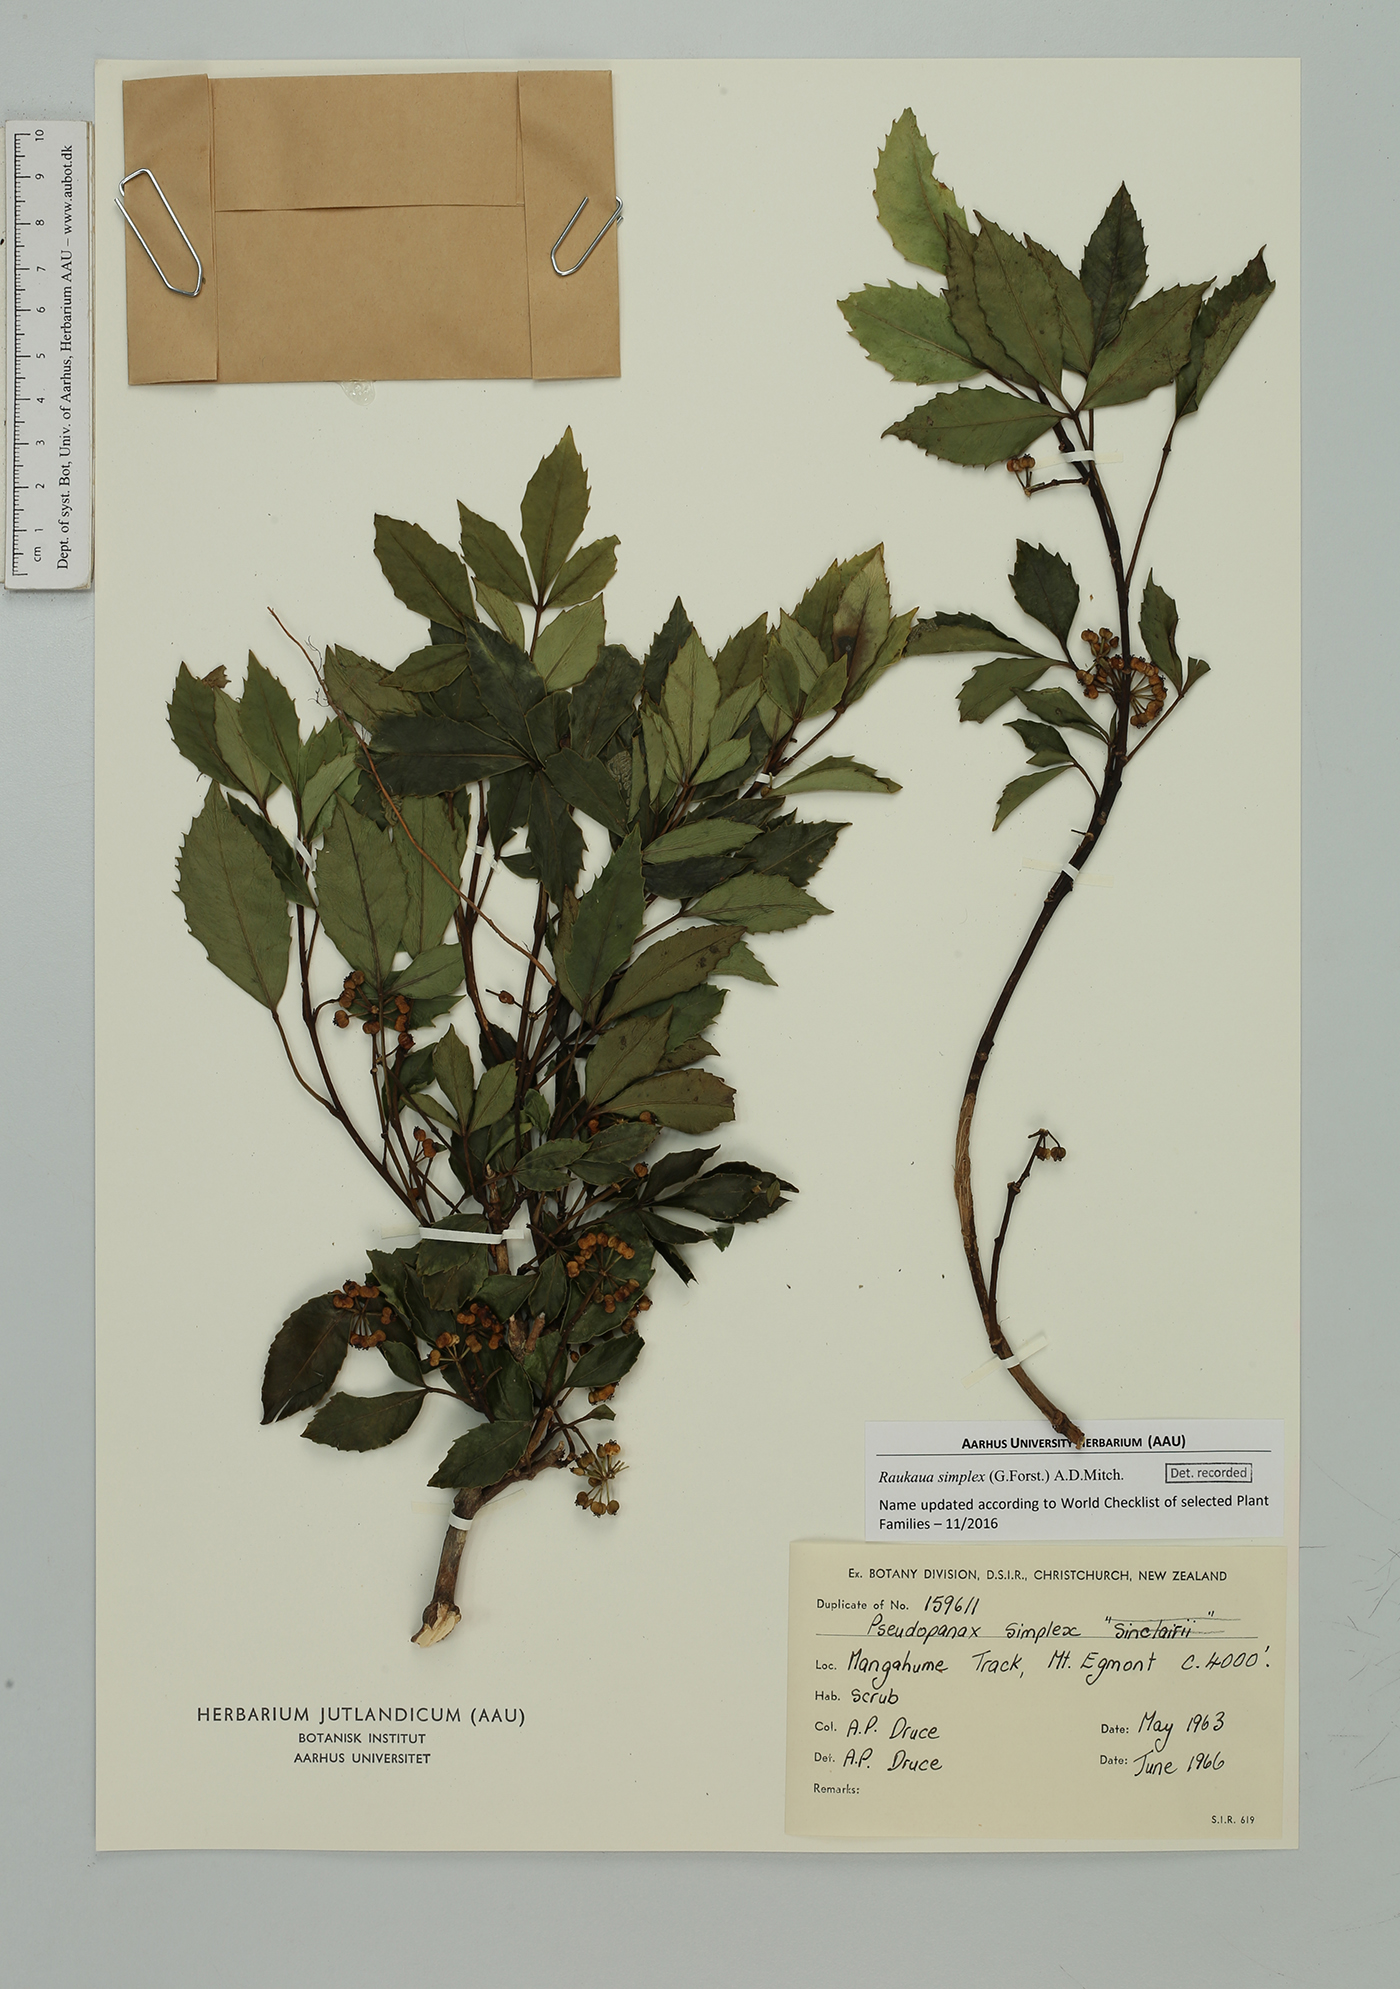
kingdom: Plantae
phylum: Tracheophyta
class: Magnoliopsida
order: Apiales
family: Araliaceae
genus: Raukaua
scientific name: Raukaua simplex
